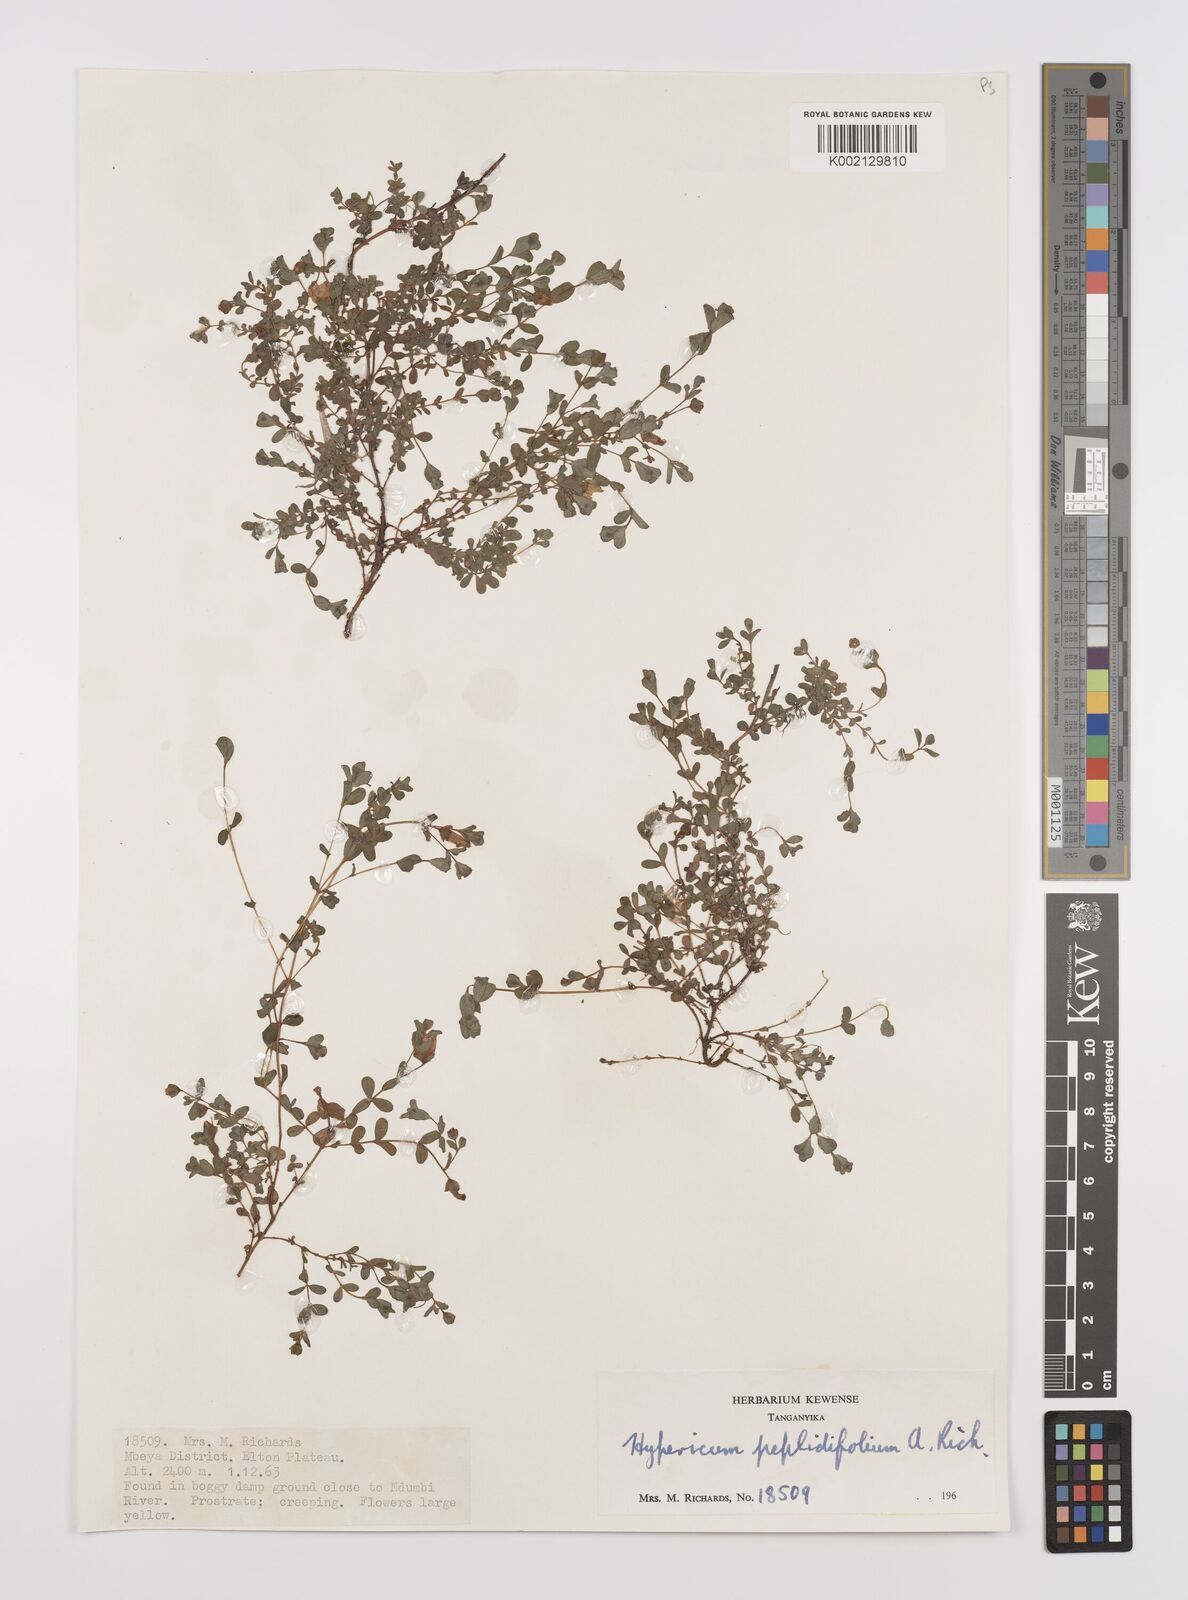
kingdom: Plantae
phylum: Tracheophyta
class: Magnoliopsida
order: Malpighiales
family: Hypericaceae
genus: Hypericum
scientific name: Hypericum peplidifolium
